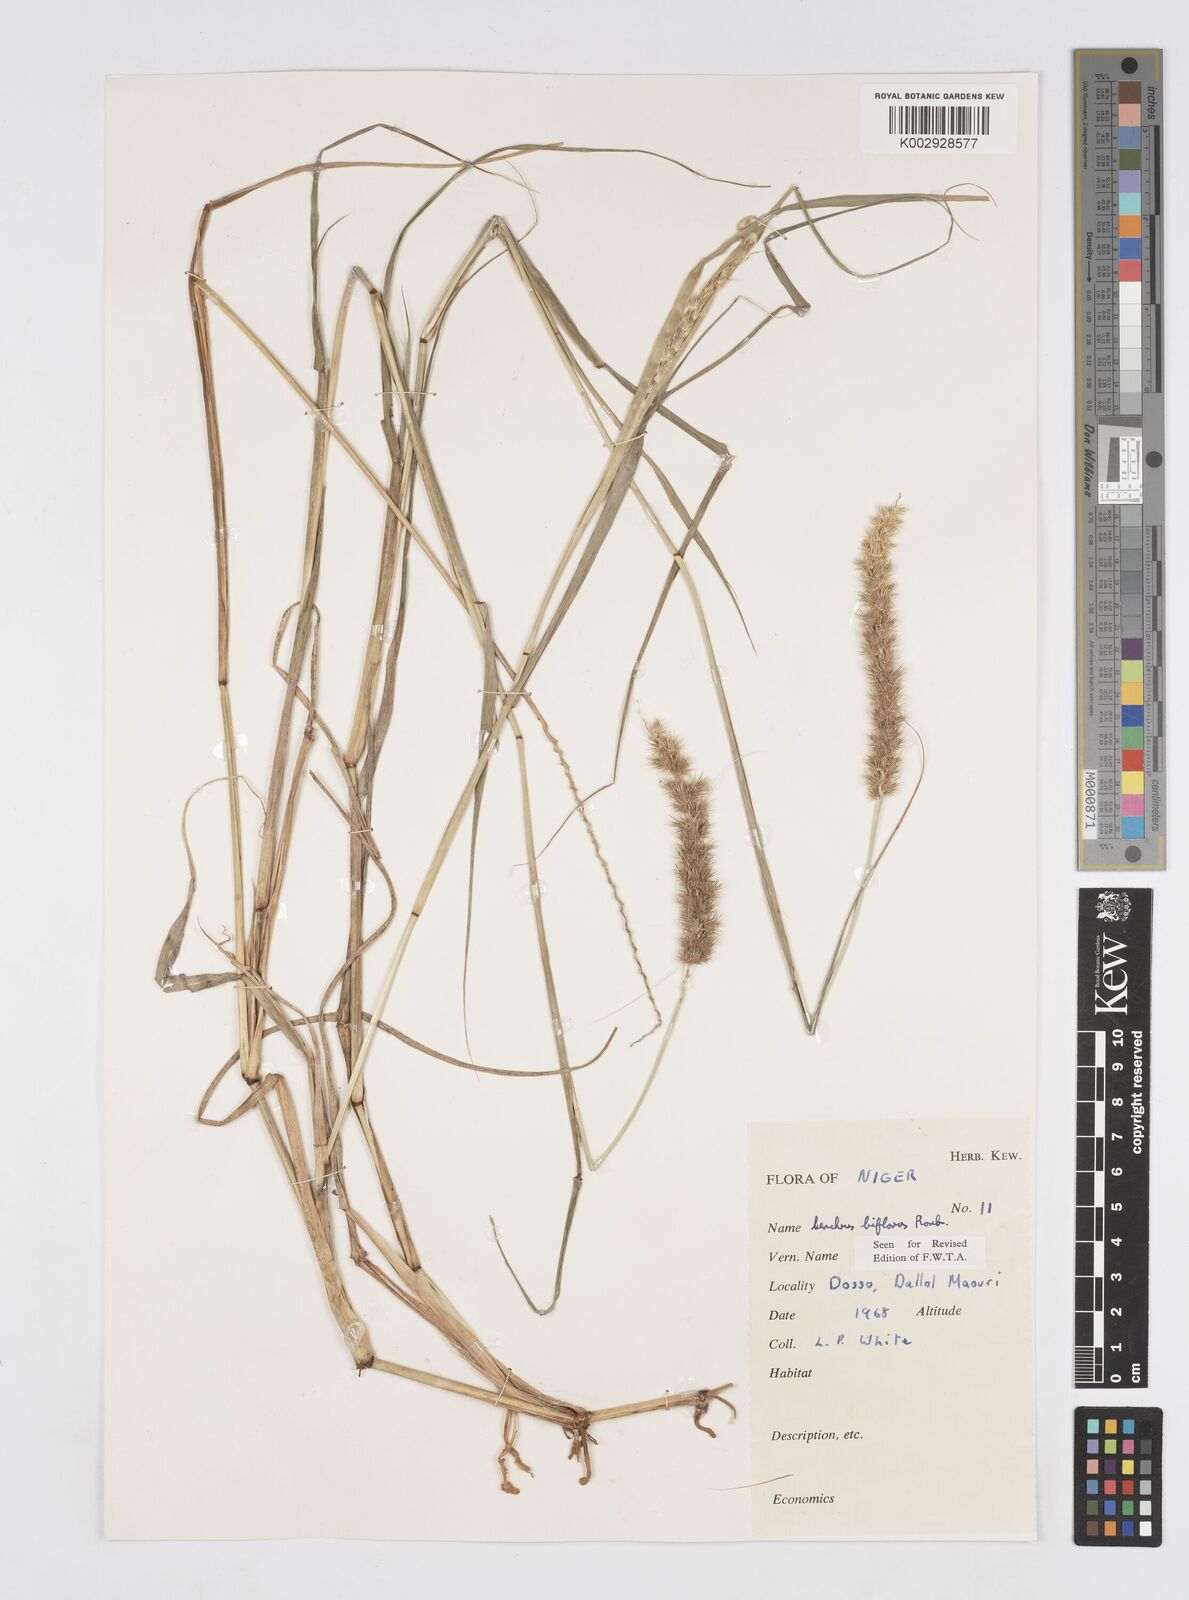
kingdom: Plantae
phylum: Tracheophyta
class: Liliopsida
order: Poales
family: Poaceae
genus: Cenchrus
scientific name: Cenchrus biflorus
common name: Indian sandbur
